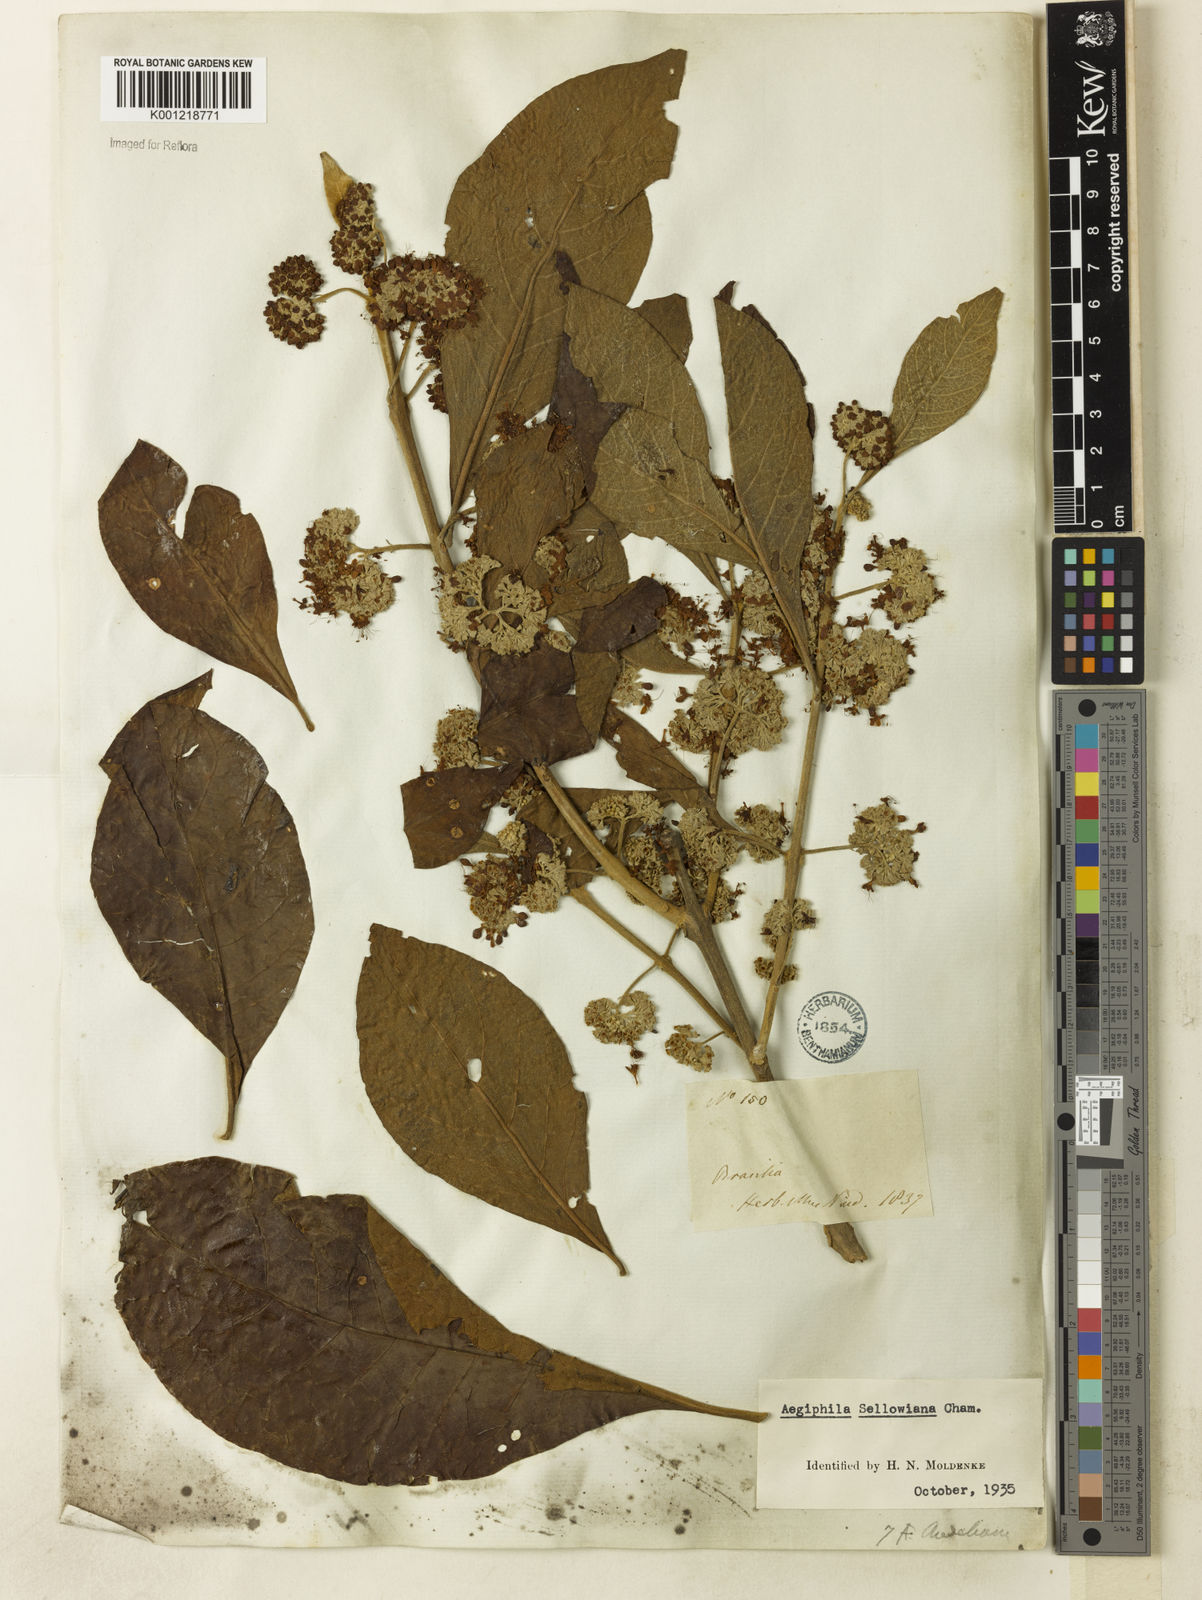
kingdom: Plantae
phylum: Tracheophyta
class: Magnoliopsida
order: Lamiales
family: Lamiaceae
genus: Aegiphila
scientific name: Aegiphila verticillata
